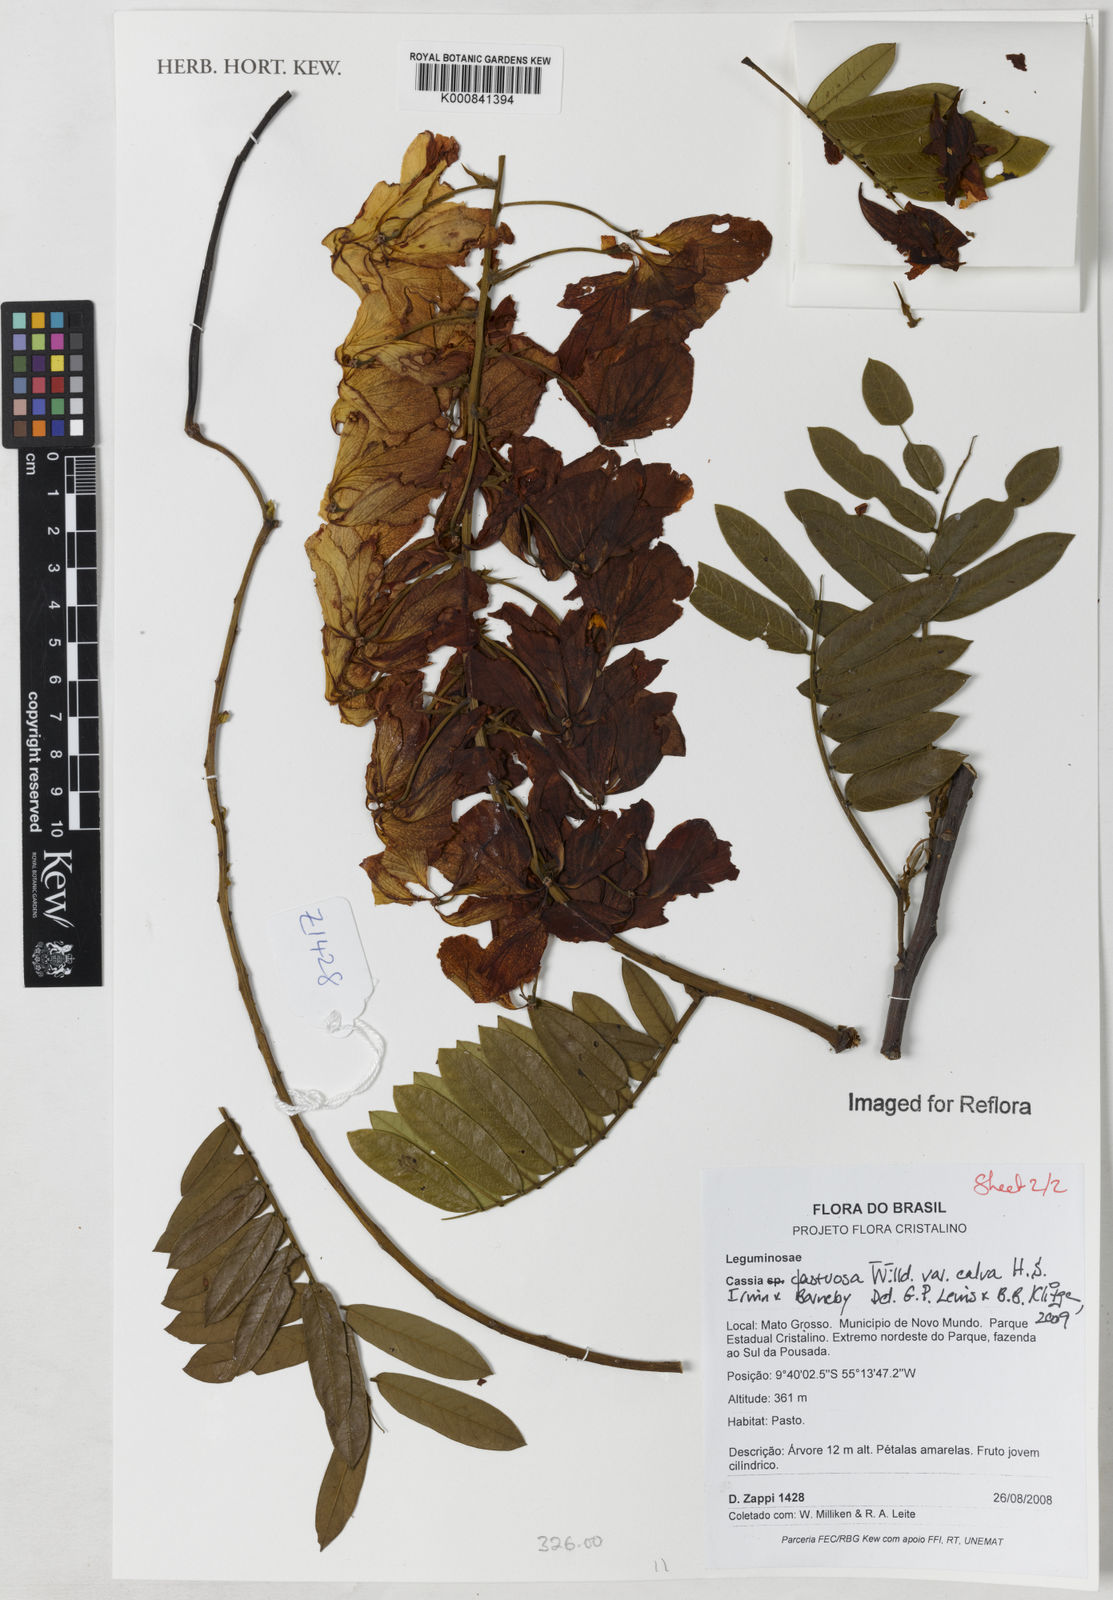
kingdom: Plantae
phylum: Tracheophyta
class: Magnoliopsida
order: Fabales
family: Fabaceae
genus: Cassia
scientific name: Cassia fastuosa
